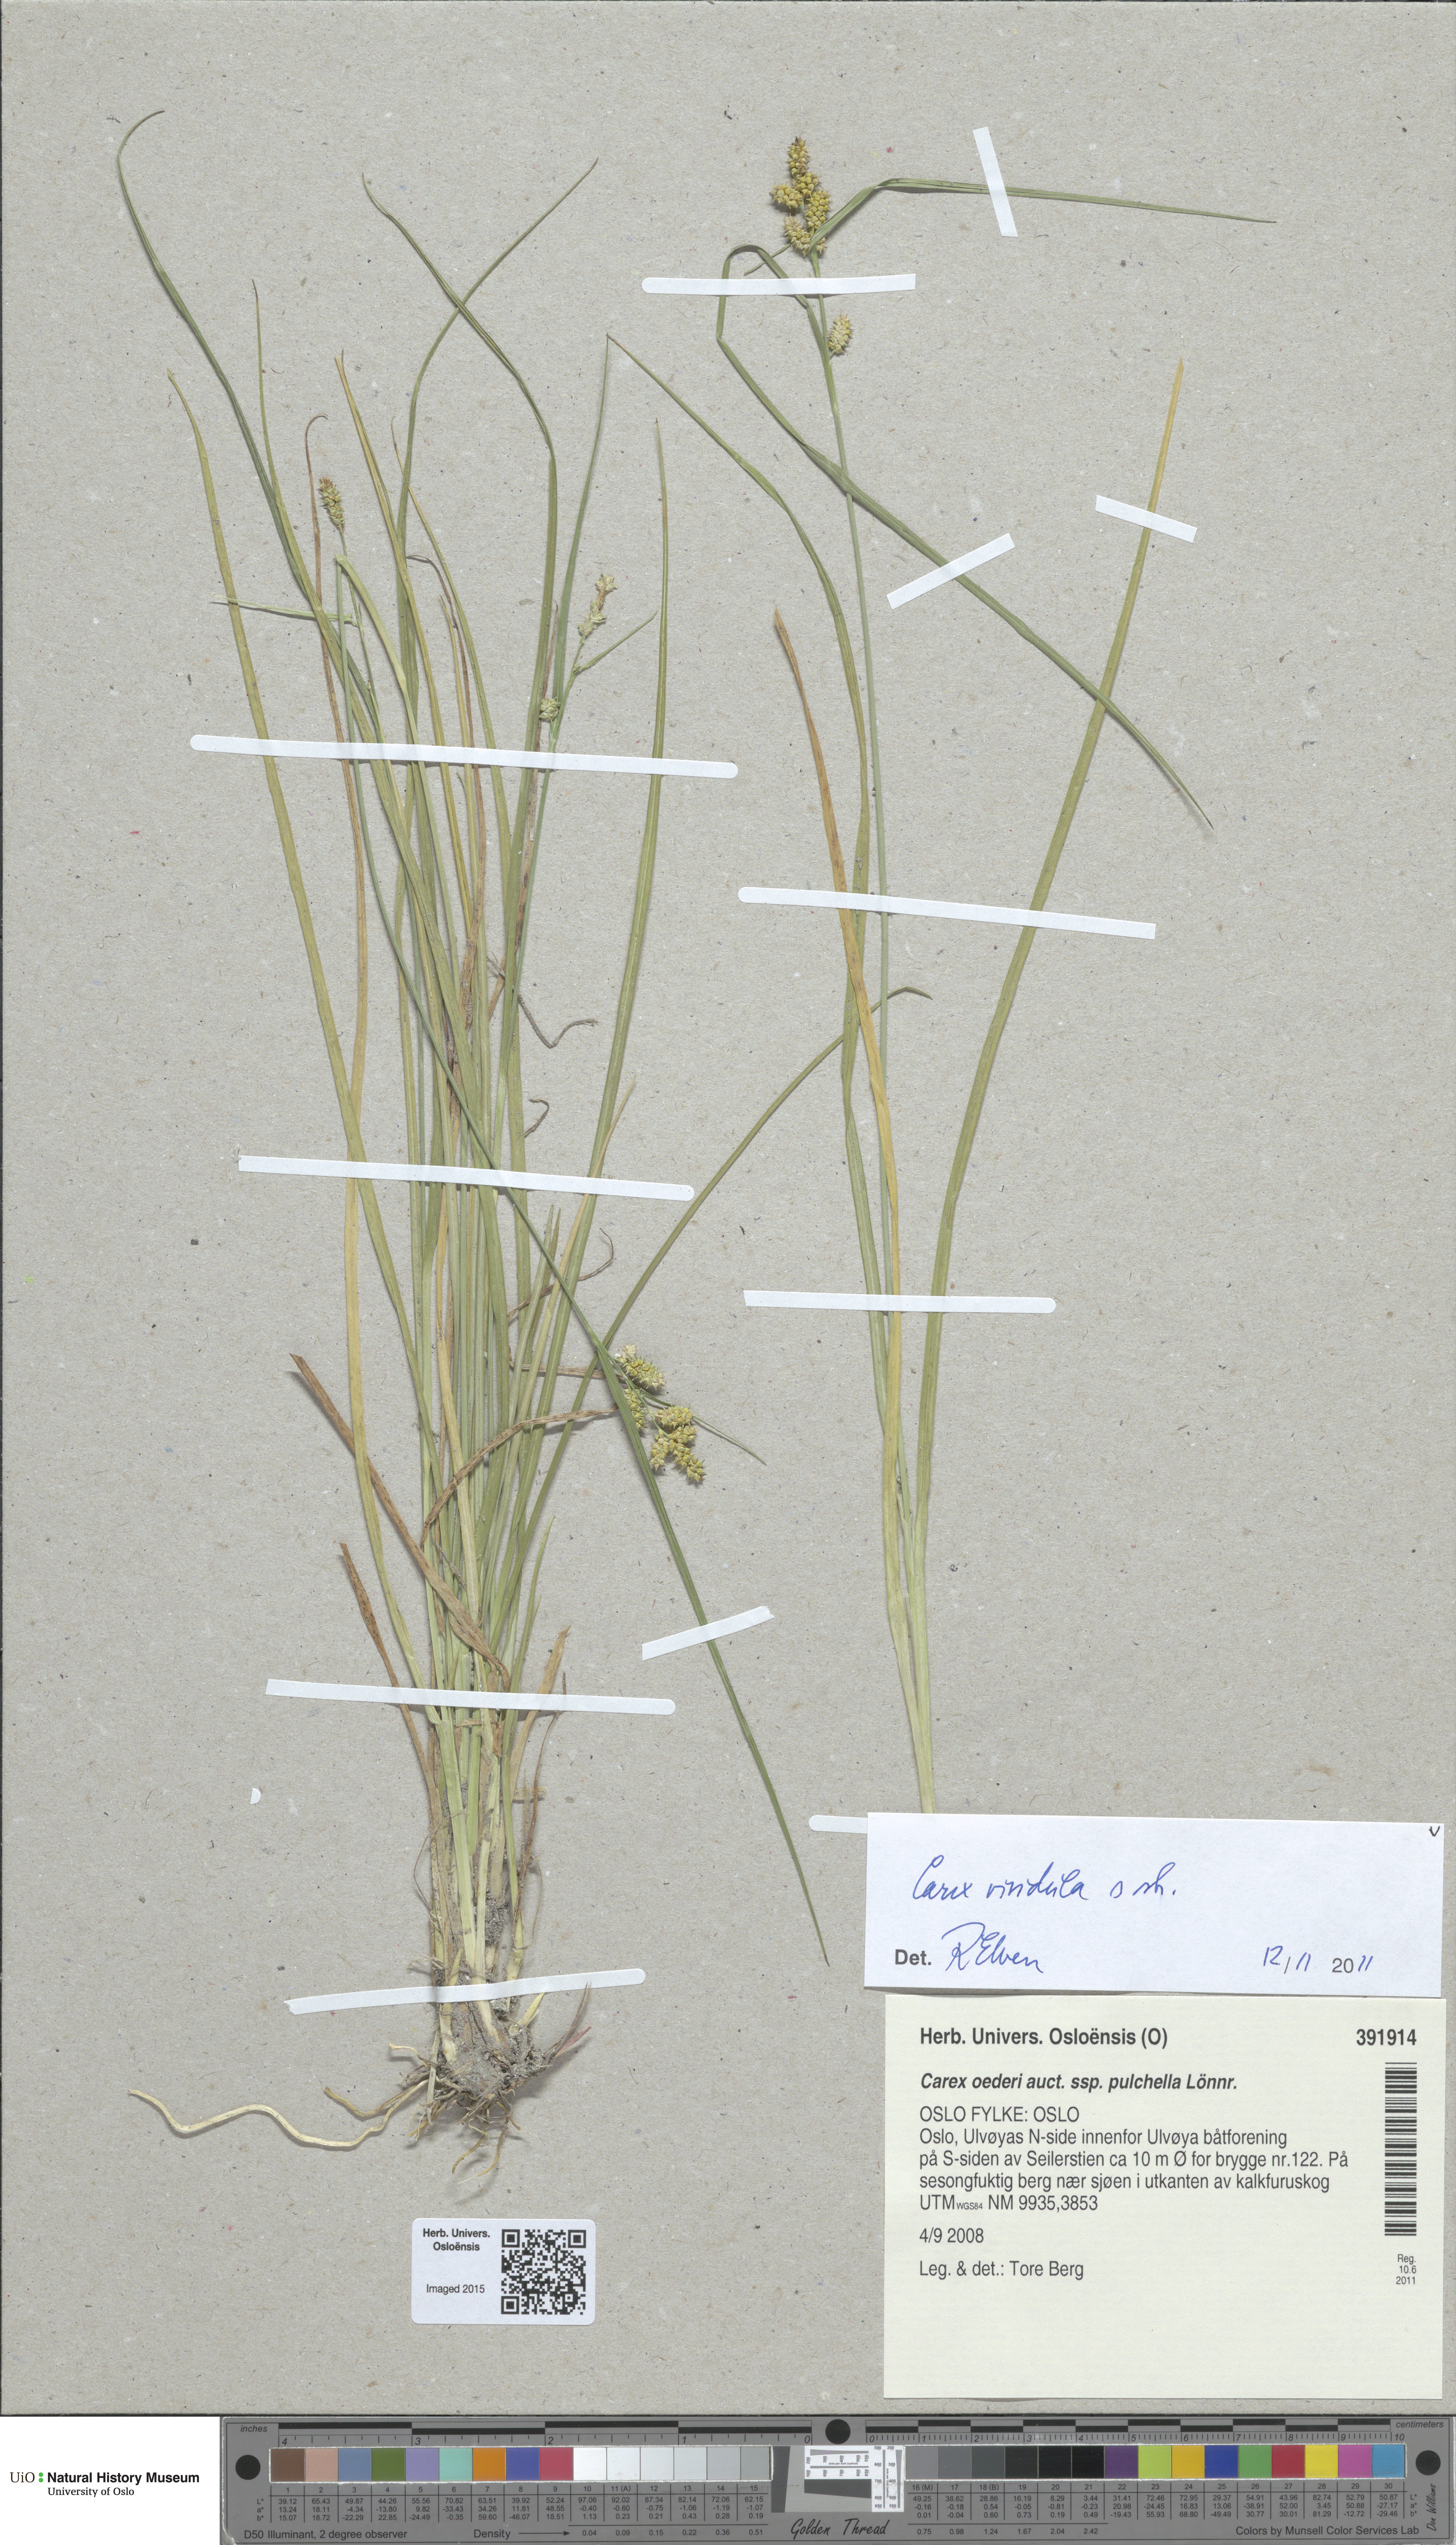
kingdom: Plantae
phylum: Tracheophyta
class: Liliopsida
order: Poales
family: Cyperaceae
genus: Carex
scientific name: Carex oederi
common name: Common & small-fruited yellow-sedge
